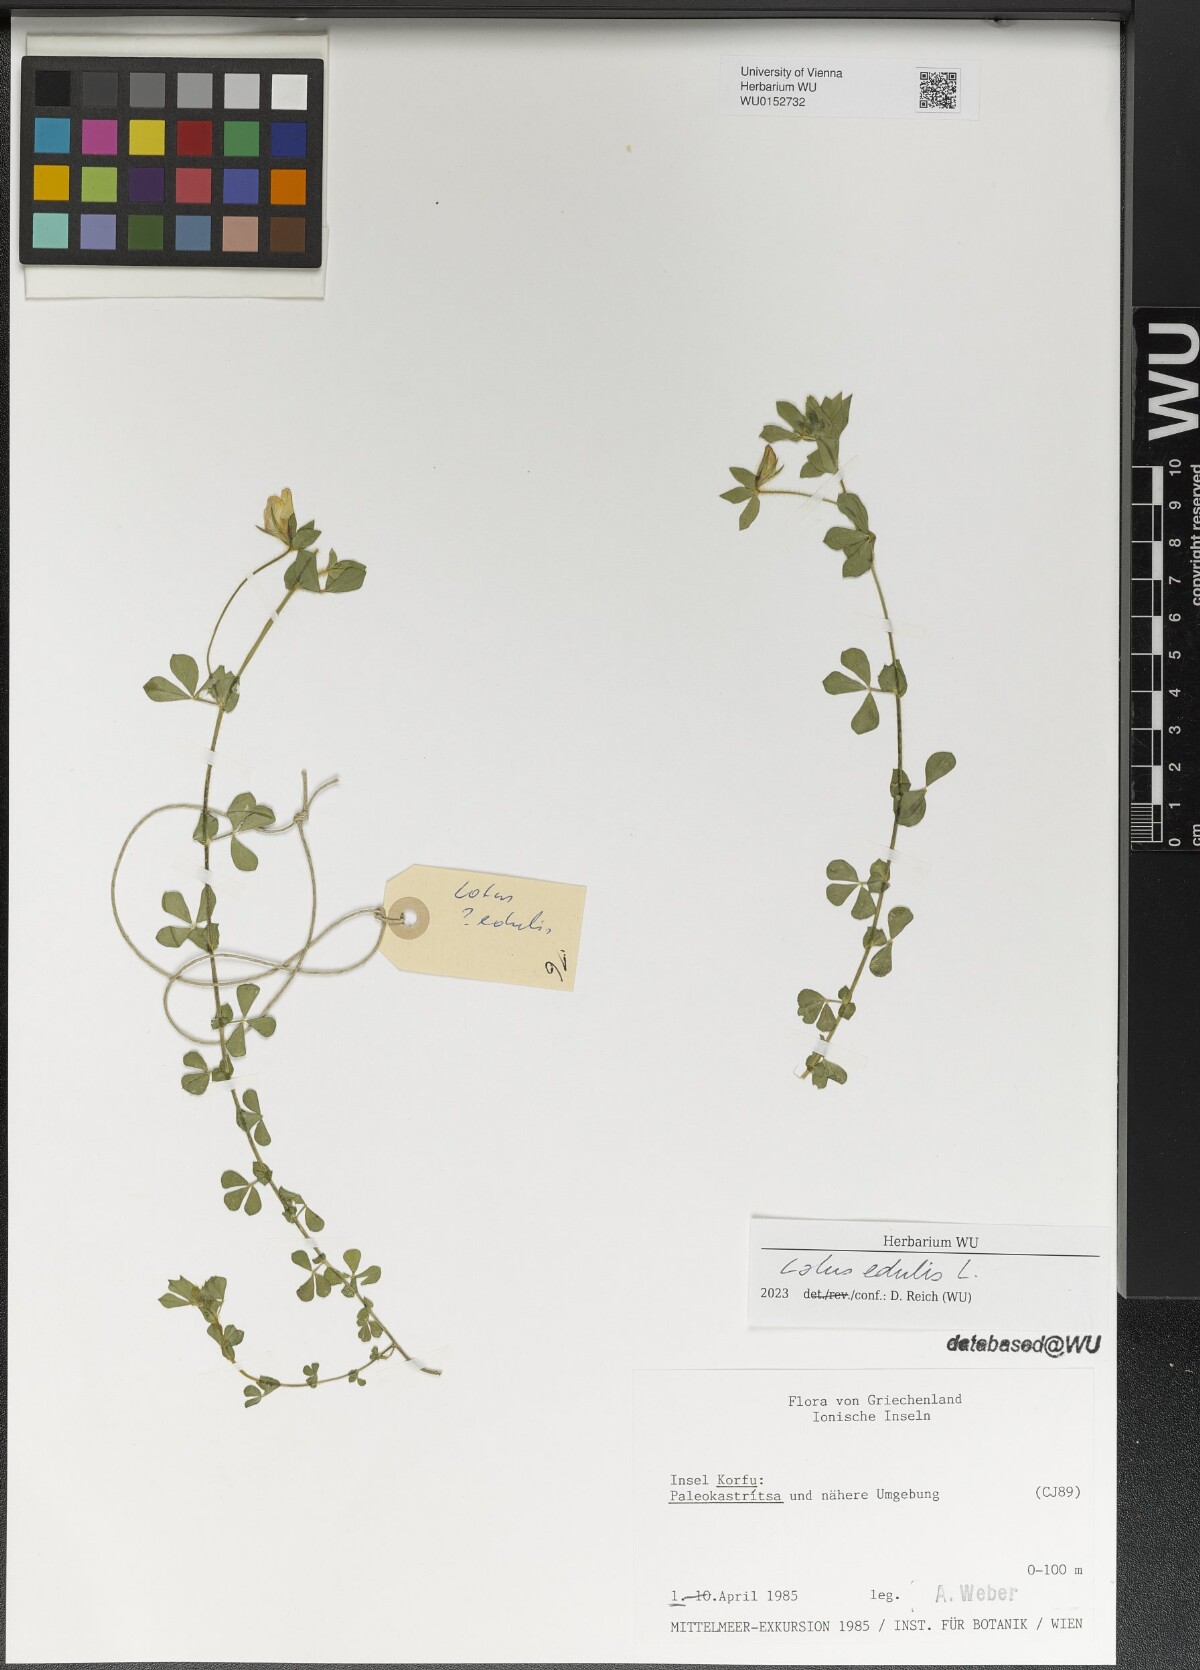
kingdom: Plantae
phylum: Tracheophyta
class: Magnoliopsida
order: Fabales
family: Fabaceae
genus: Lotus
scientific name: Lotus edulis
